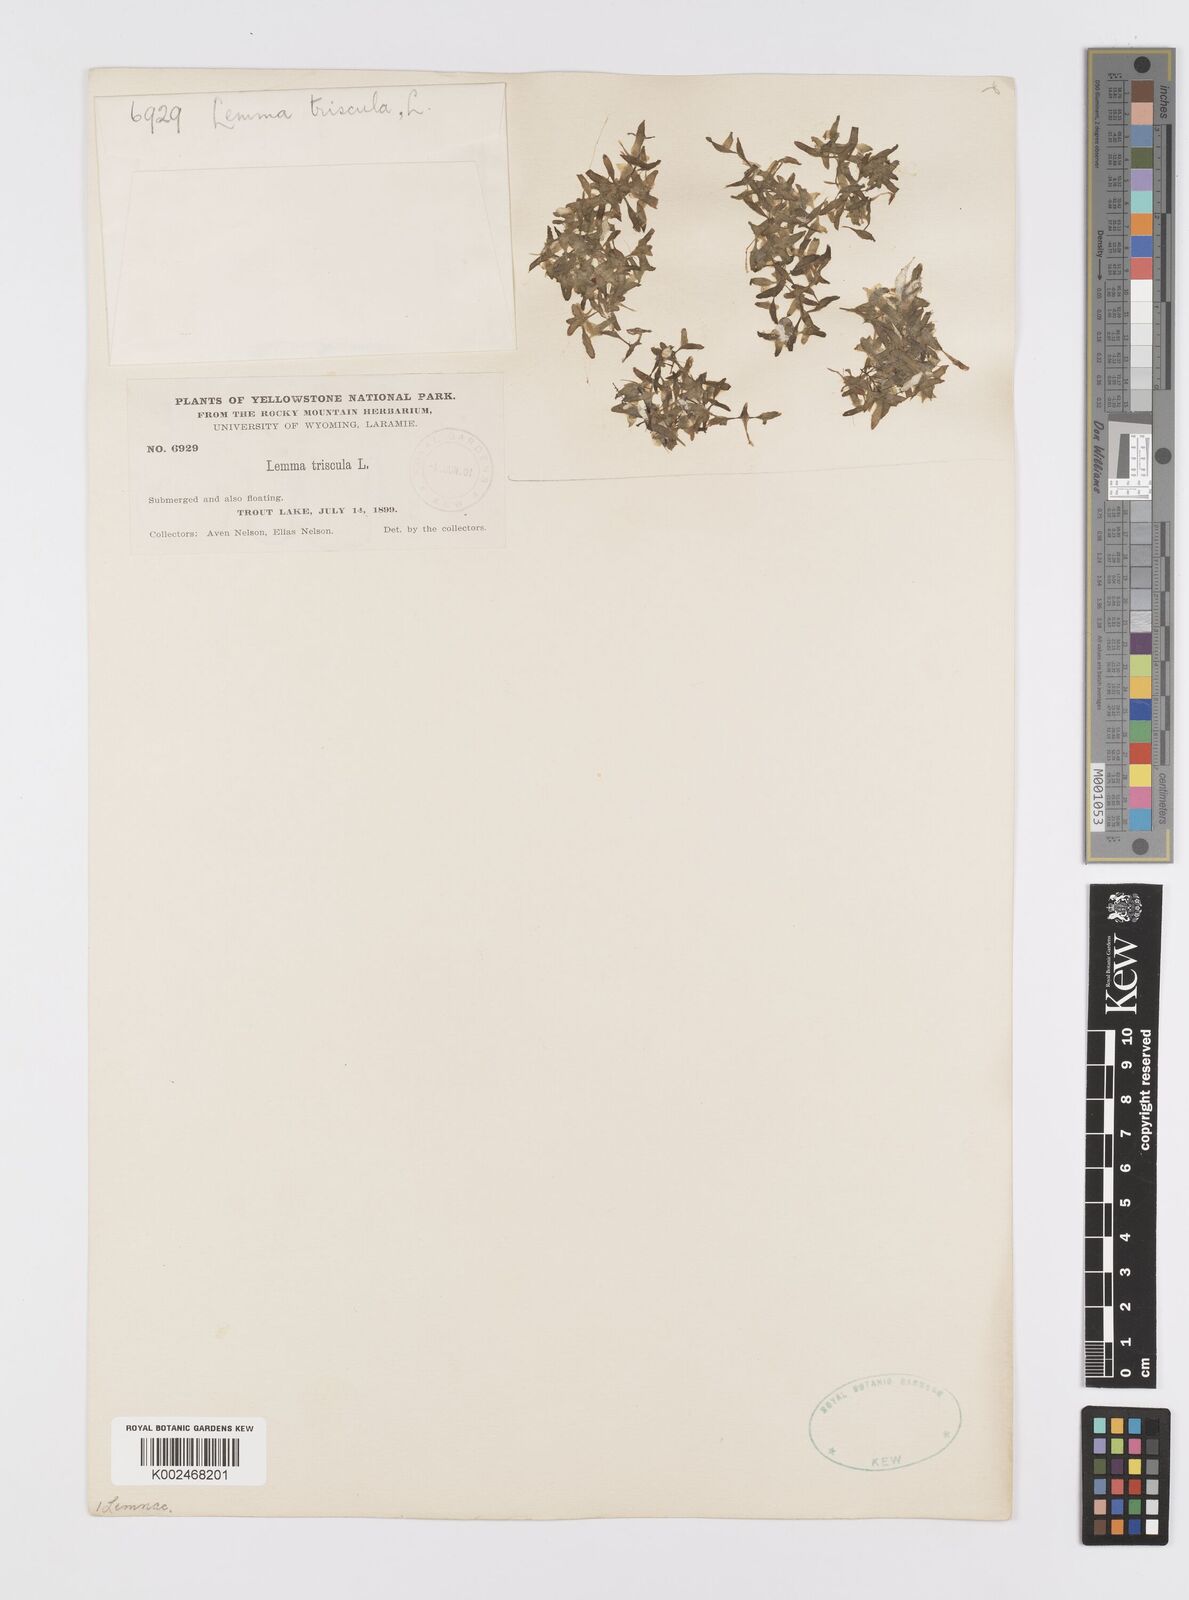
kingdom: Plantae
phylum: Tracheophyta
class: Liliopsida
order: Alismatales
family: Araceae
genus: Lemna
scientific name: Lemna trisulca
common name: Ivy-leaved duckweed
